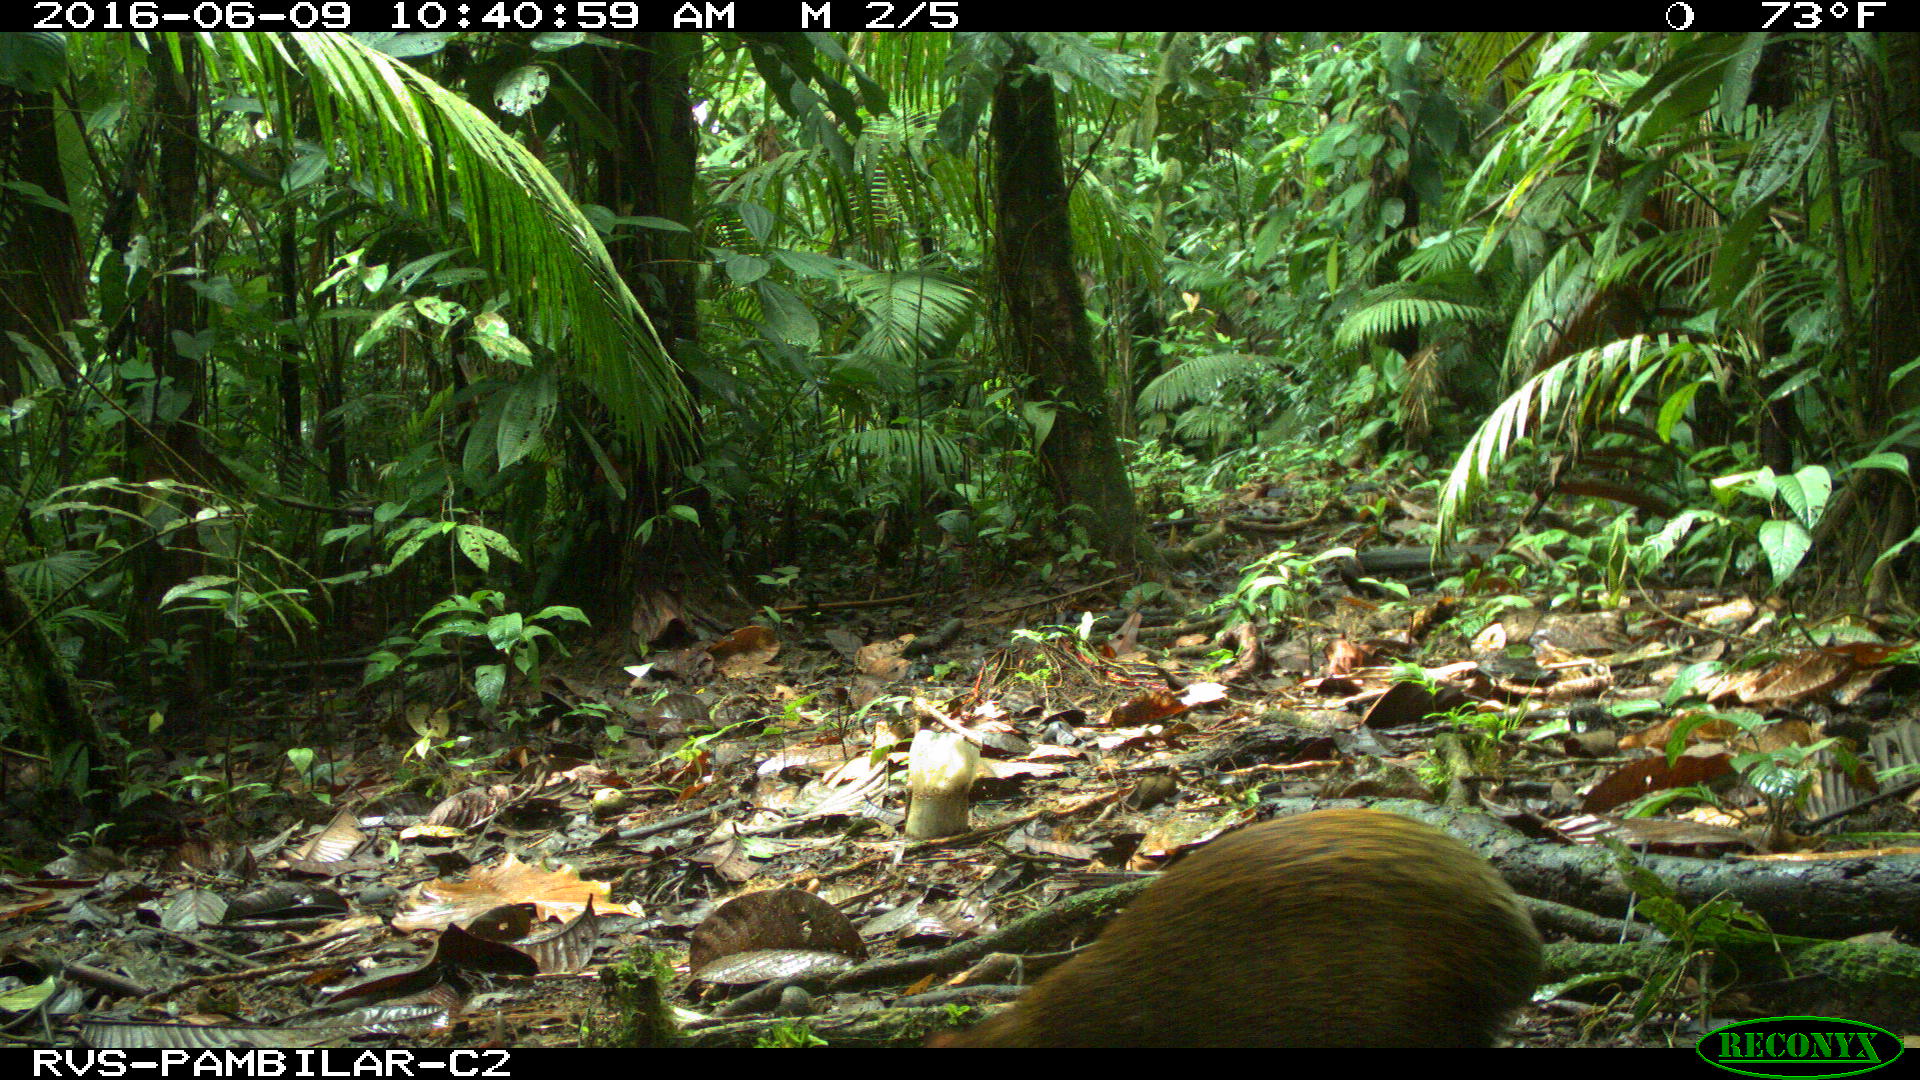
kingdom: Animalia
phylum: Chordata
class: Mammalia
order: Rodentia
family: Dasyproctidae
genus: Dasyprocta
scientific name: Dasyprocta punctata
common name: Central american agouti
